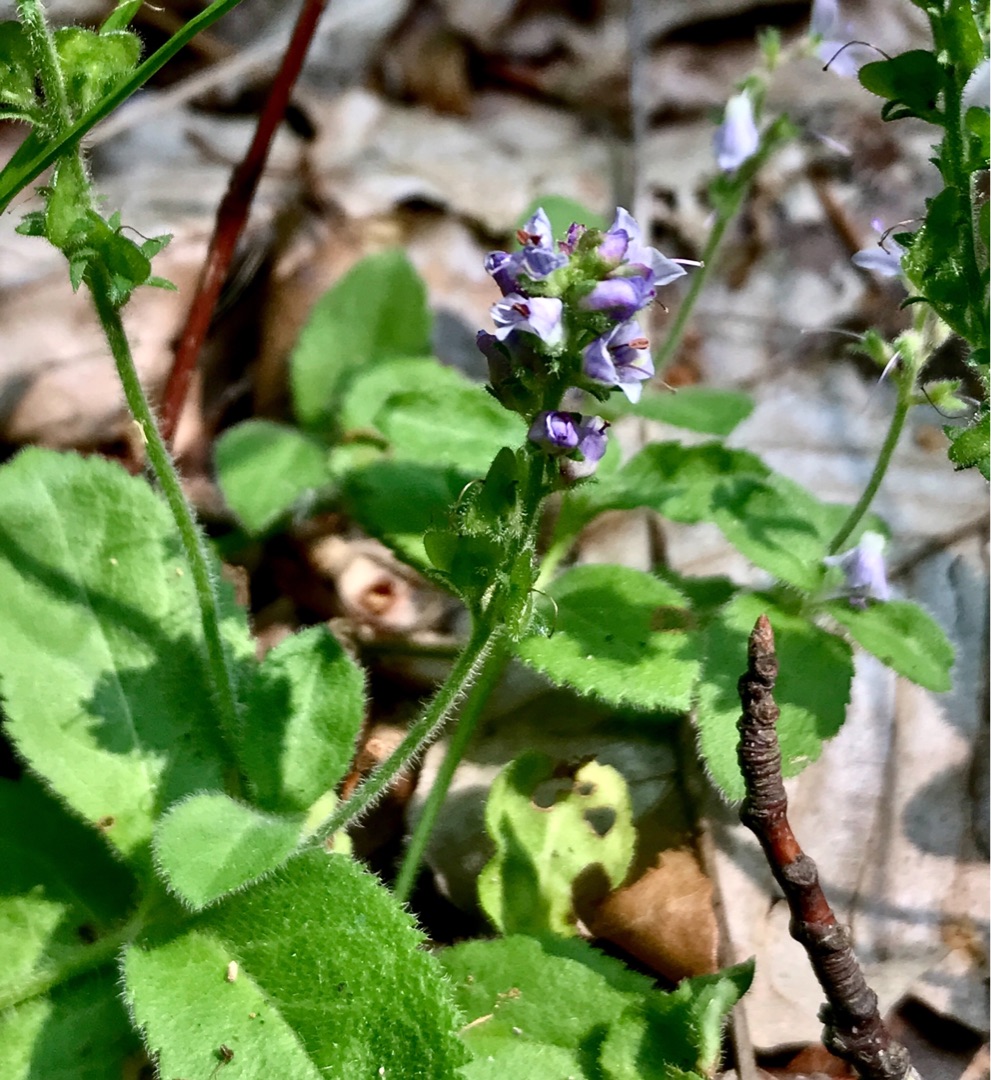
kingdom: Plantae
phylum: Tracheophyta
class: Magnoliopsida
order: Lamiales
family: Plantaginaceae
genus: Veronica
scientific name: Veronica officinalis
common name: Læge-ærenpris
